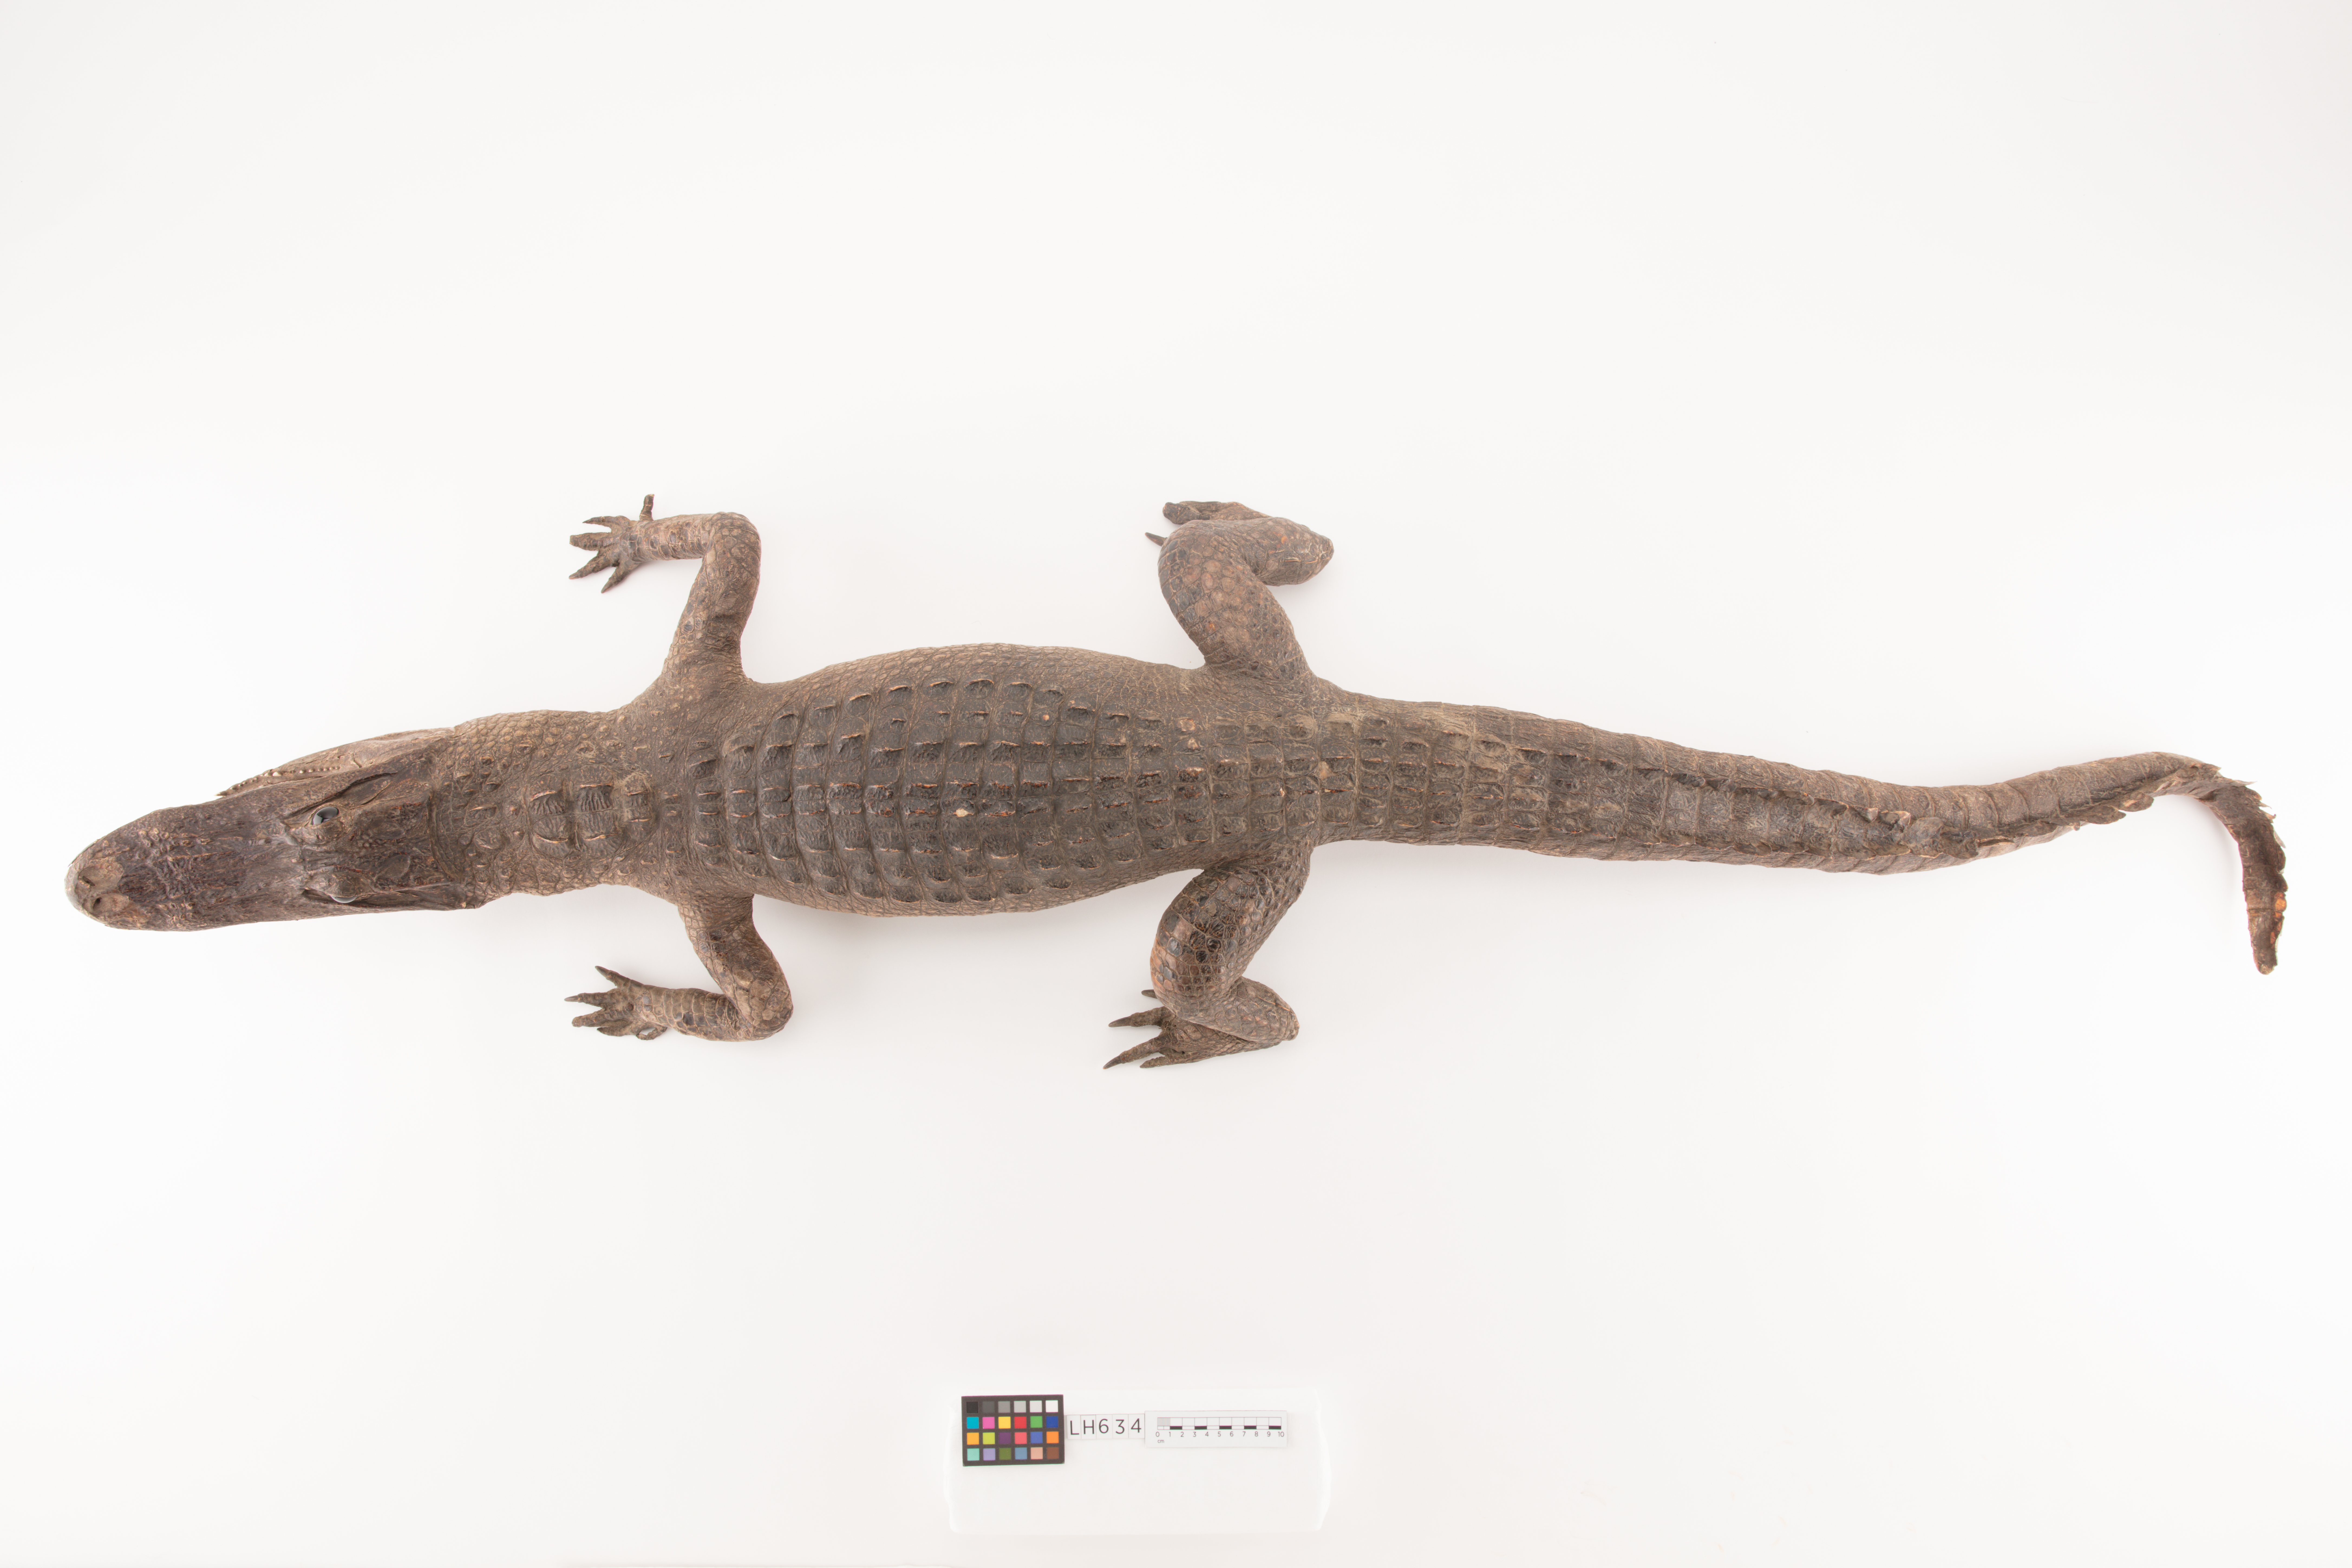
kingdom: Animalia
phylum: Chordata
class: Crocodylia
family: Alligatoridae
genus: Alligator
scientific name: Alligator mississippiensis
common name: American alligator
